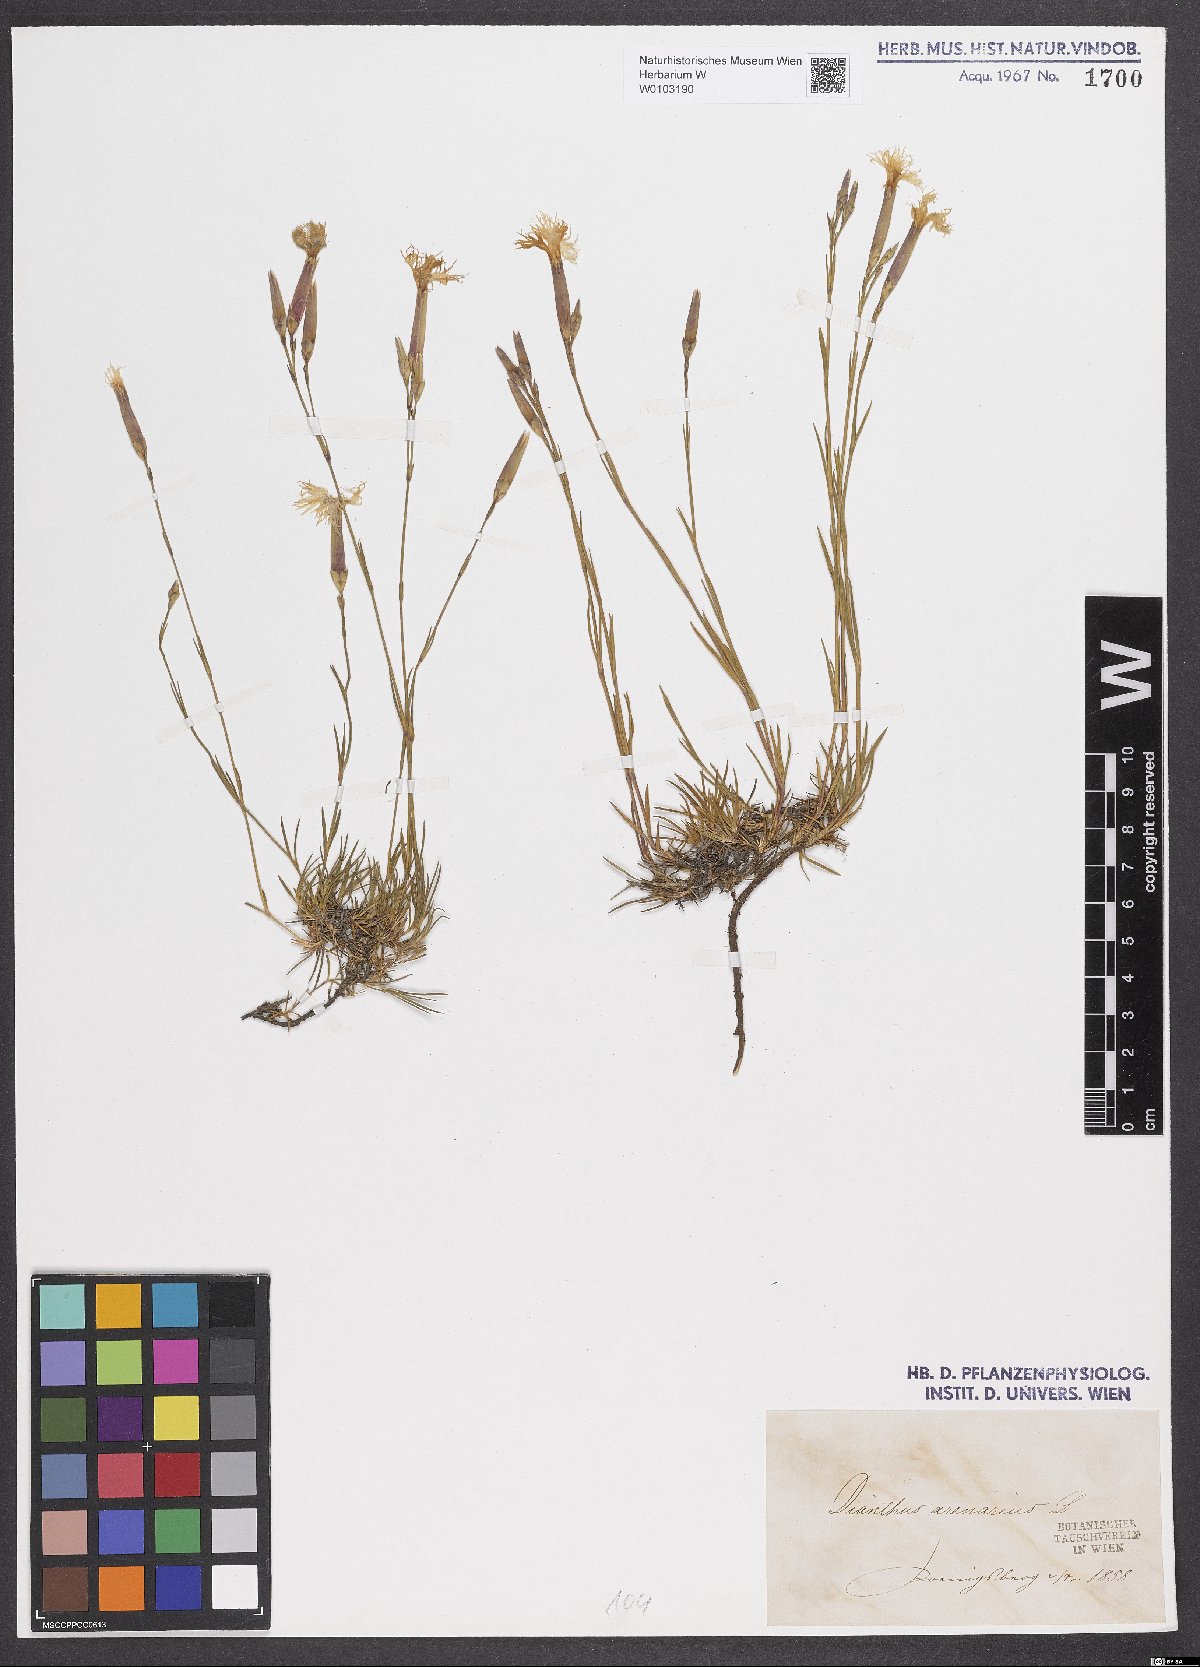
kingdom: Plantae
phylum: Tracheophyta
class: Magnoliopsida
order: Caryophyllales
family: Caryophyllaceae
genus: Dianthus
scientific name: Dianthus arenarius
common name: Stone pink
